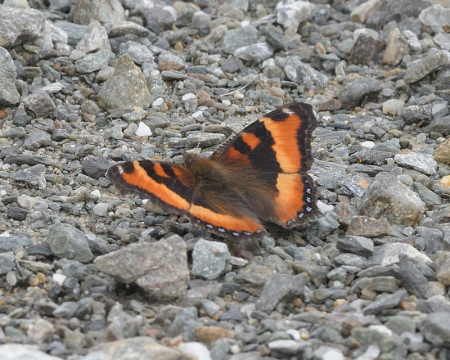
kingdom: Animalia
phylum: Arthropoda
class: Insecta
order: Lepidoptera
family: Nymphalidae
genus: Aglais
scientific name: Aglais milberti
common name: Milbert's Tortoiseshell
